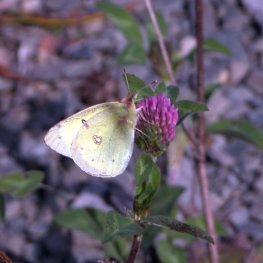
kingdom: Animalia
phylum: Arthropoda
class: Insecta
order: Lepidoptera
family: Pieridae
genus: Colias
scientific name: Colias philodice
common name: Clouded Sulphur
